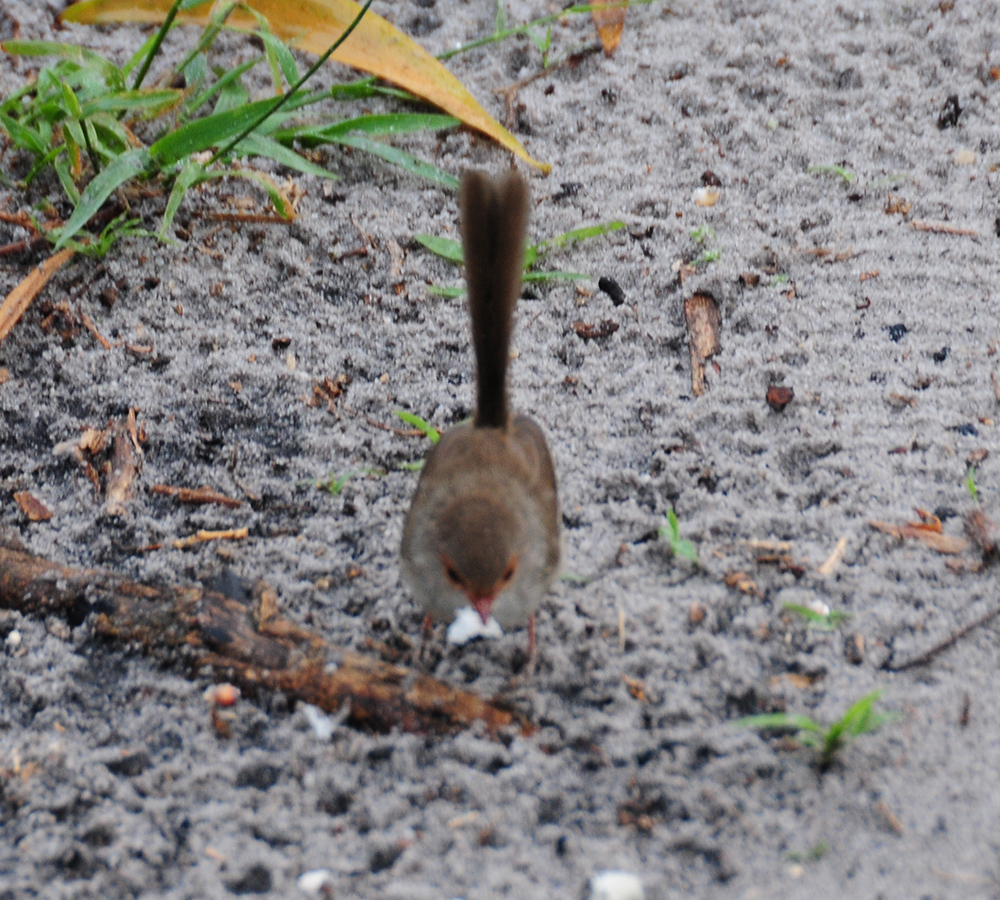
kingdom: Animalia
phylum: Chordata
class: Aves
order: Passeriformes
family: Maluridae
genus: Malurus
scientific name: Malurus cyaneus
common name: Superb fairywren
